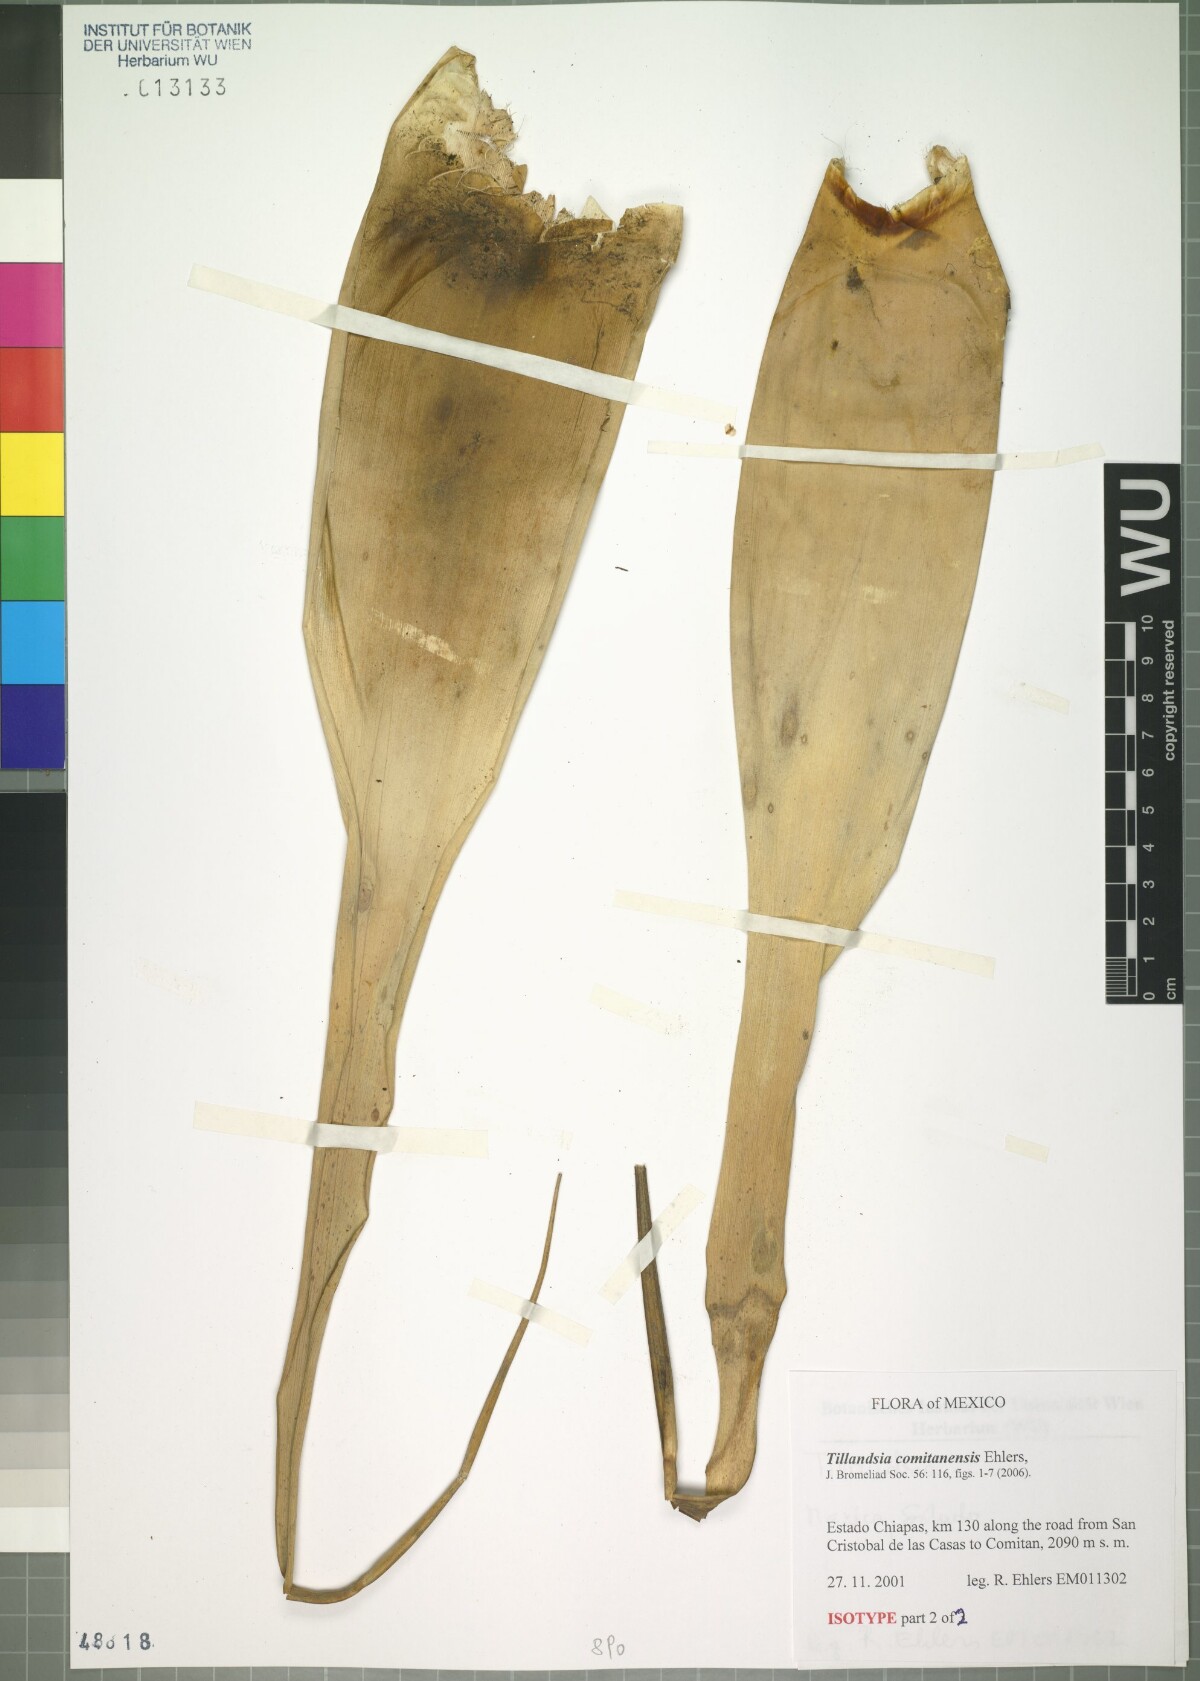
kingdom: Plantae
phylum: Tracheophyta
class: Liliopsida
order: Poales
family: Bromeliaceae
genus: Tillandsia
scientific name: Tillandsia comitanensis
